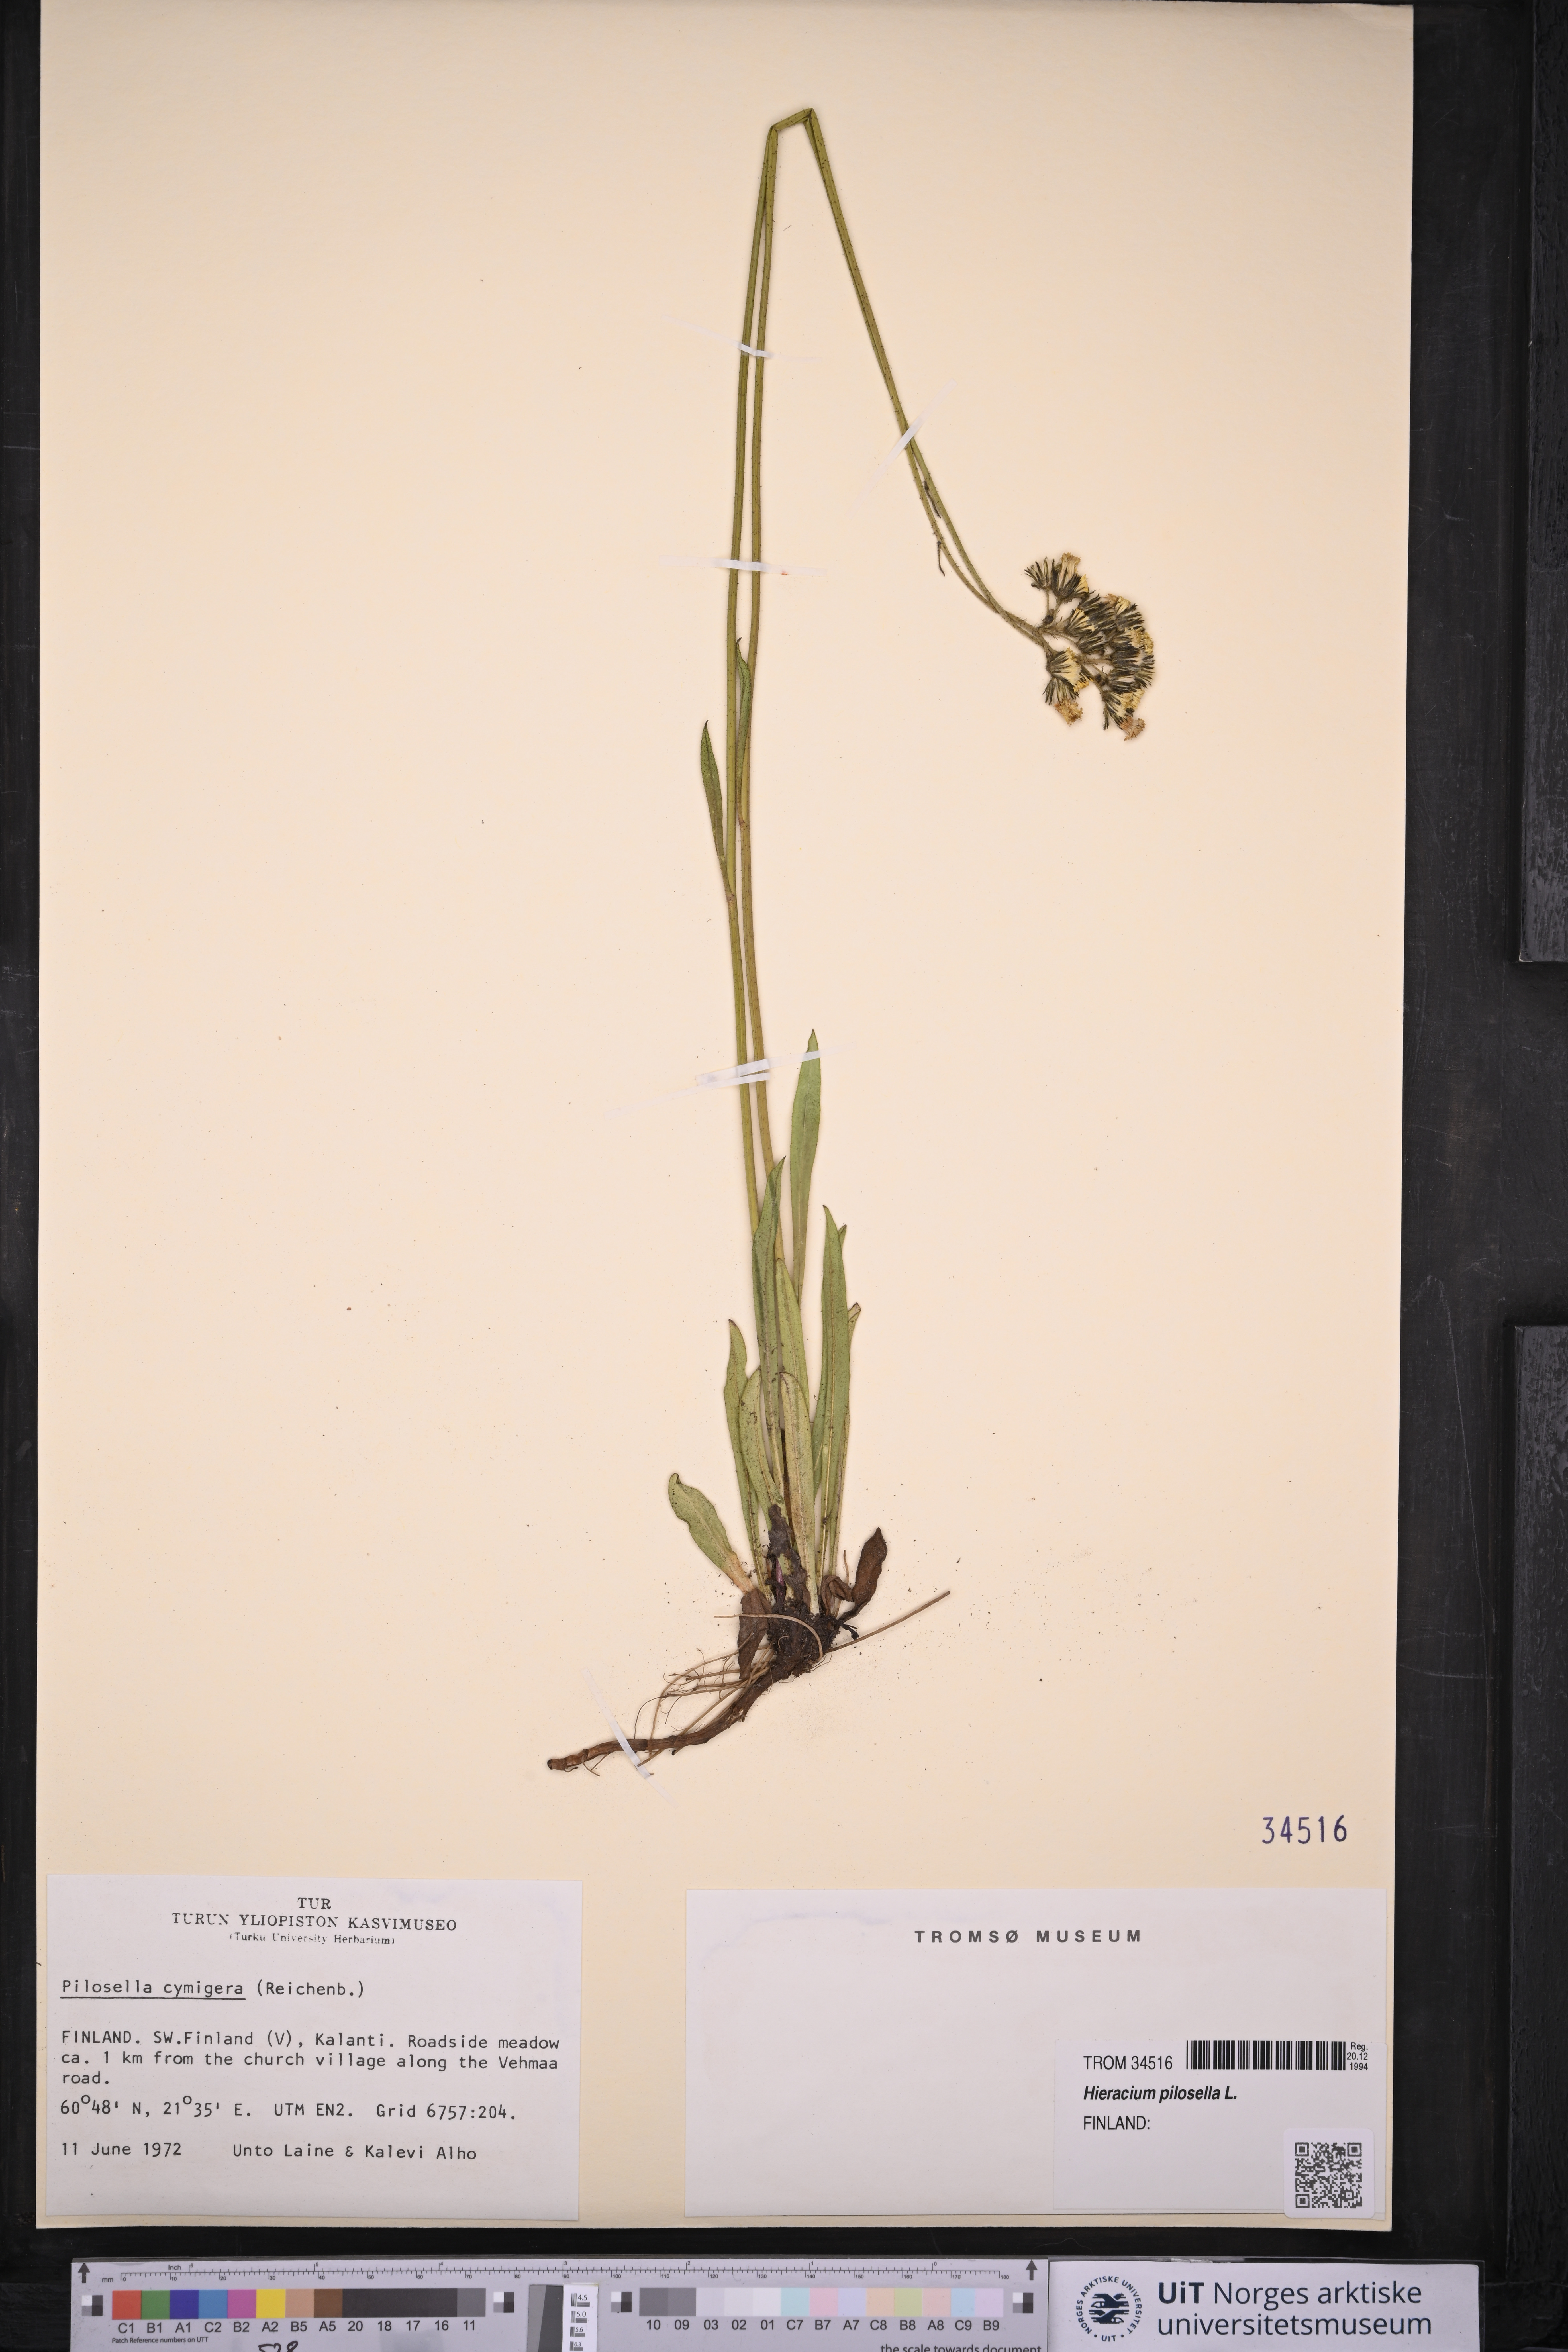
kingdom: Plantae
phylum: Tracheophyta
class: Magnoliopsida
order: Asterales
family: Asteraceae
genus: Pilosella
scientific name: Pilosella officinarum
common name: Mouse-ear hawkweed
